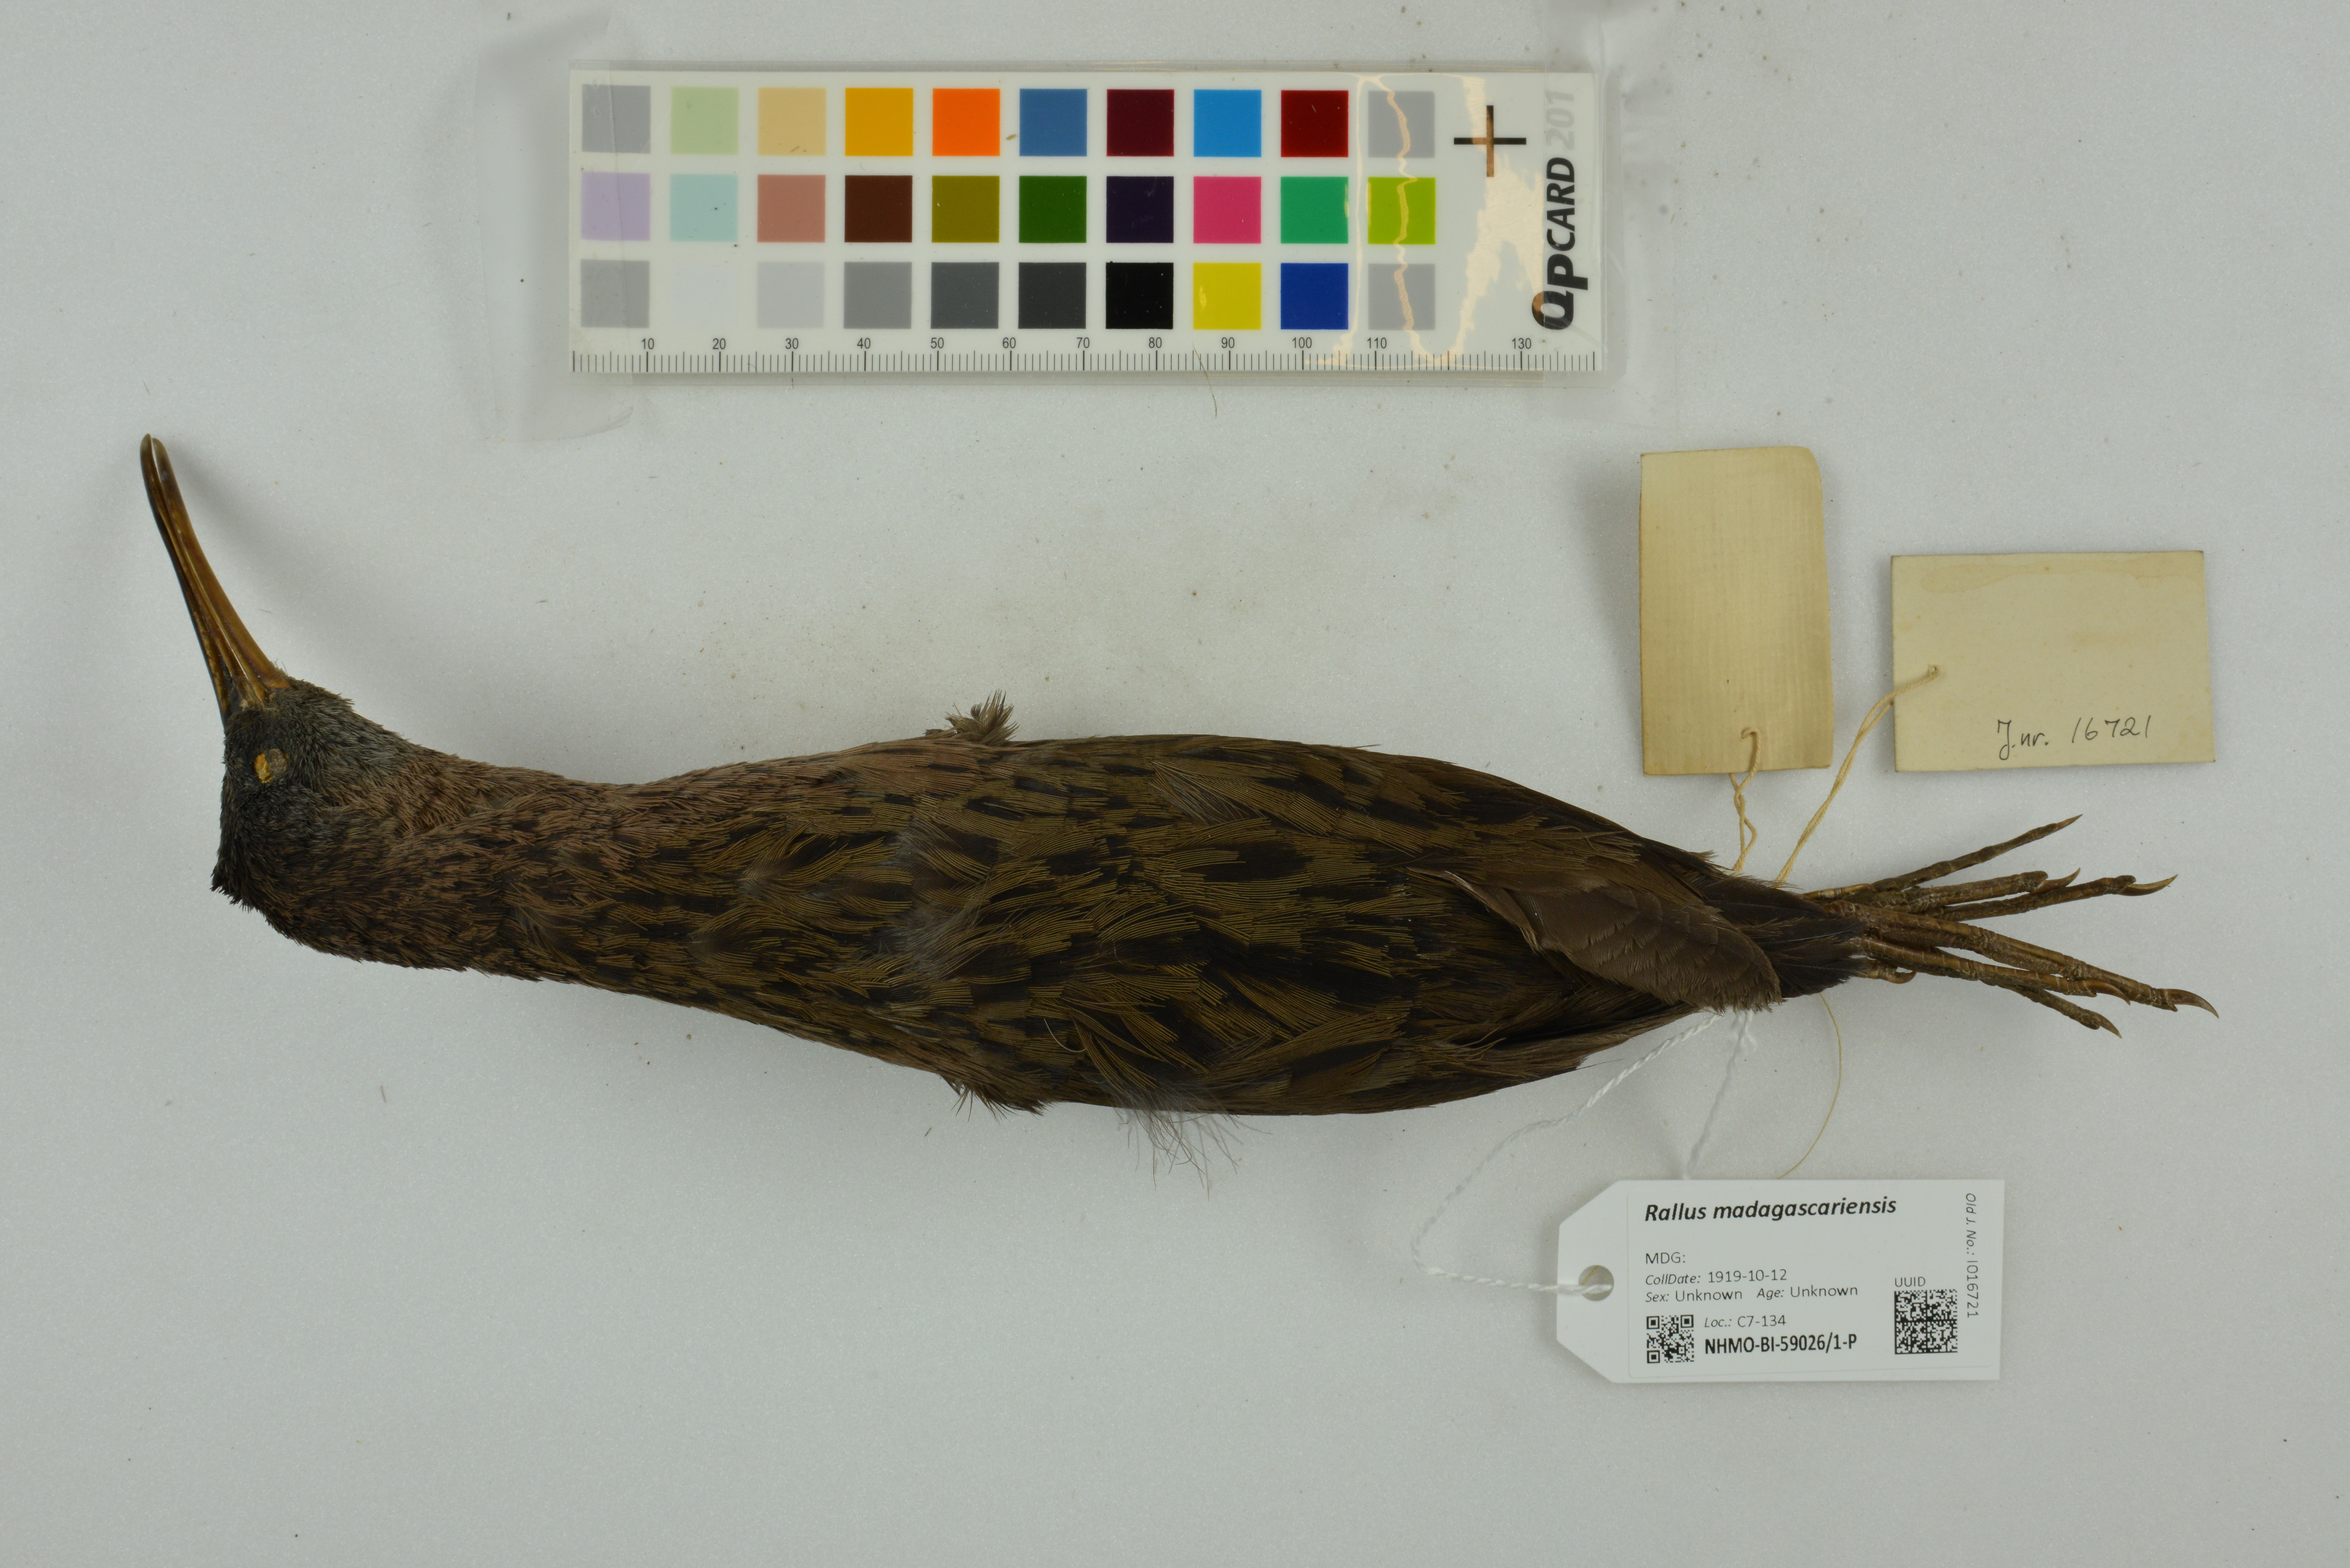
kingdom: Animalia
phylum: Chordata
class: Aves
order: Gruiformes
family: Rallidae
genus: Rallus
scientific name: Rallus madagascariensis
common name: Madagascar rail
